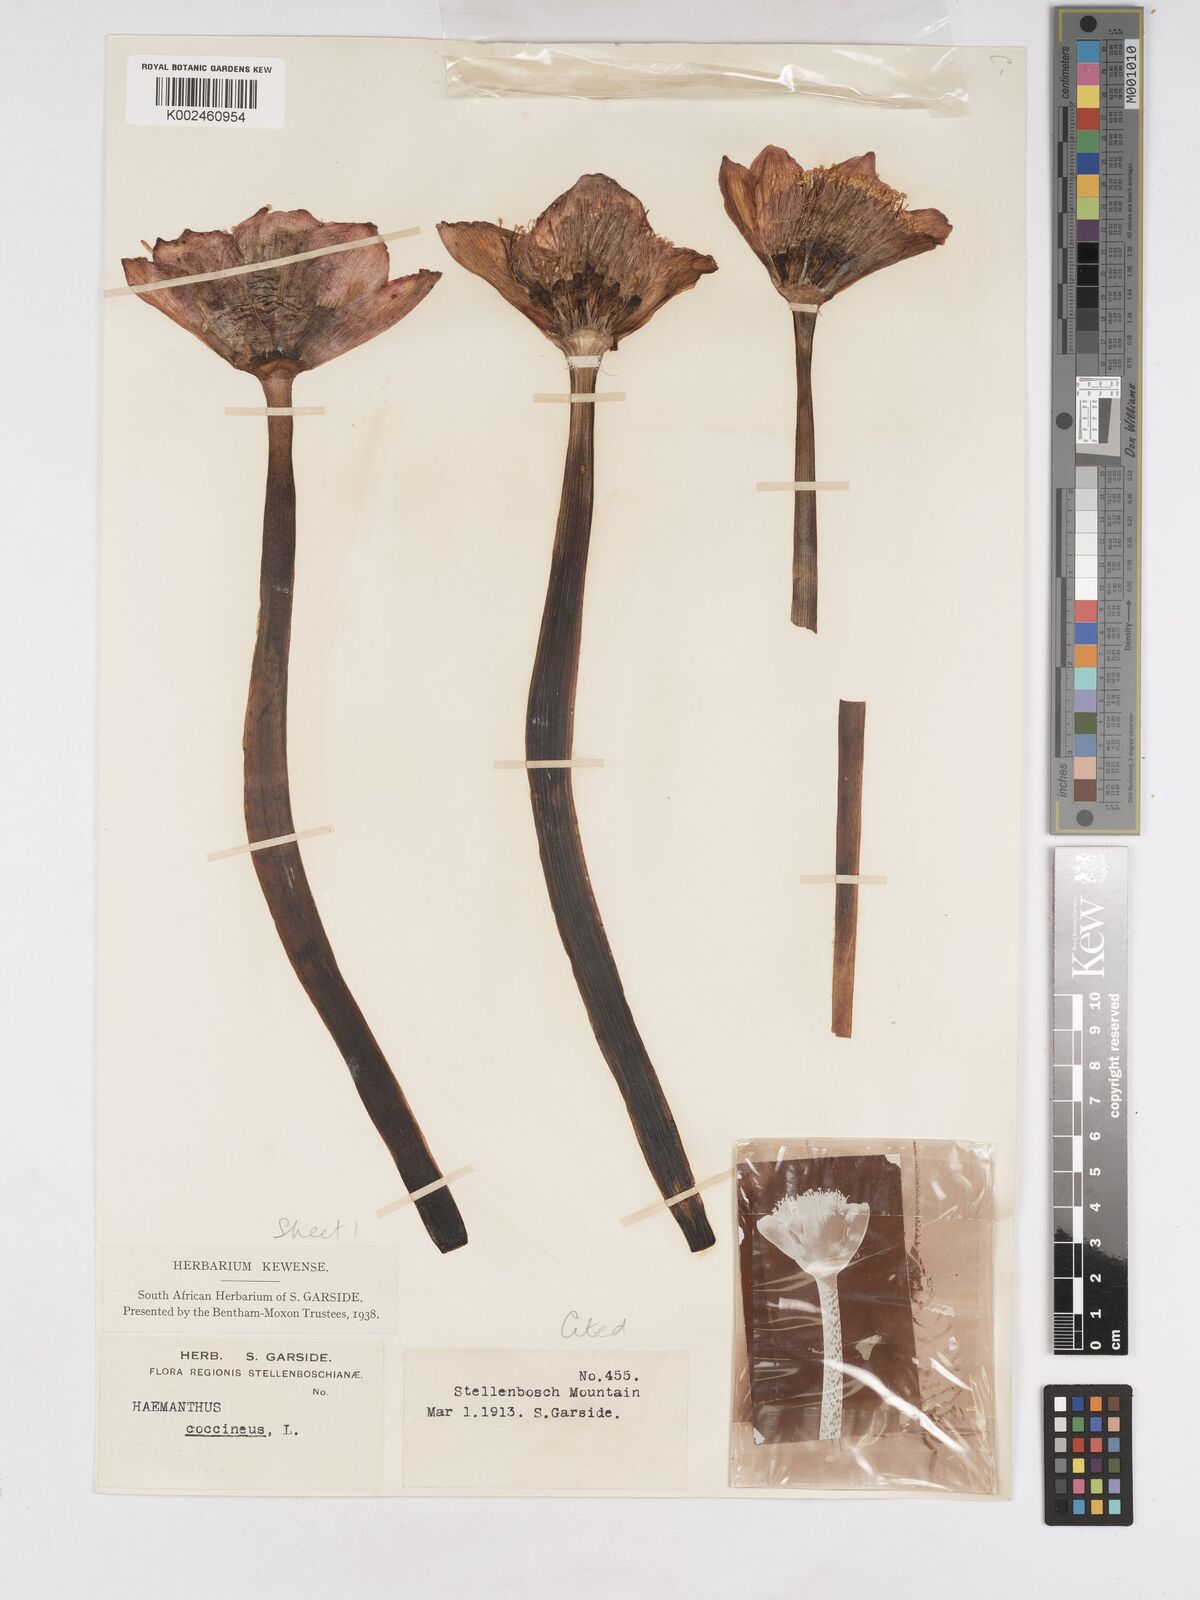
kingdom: Plantae
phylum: Tracheophyta
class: Liliopsida
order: Asparagales
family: Amaryllidaceae
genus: Haemanthus
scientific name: Haemanthus coccineus
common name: Cape-tulip
